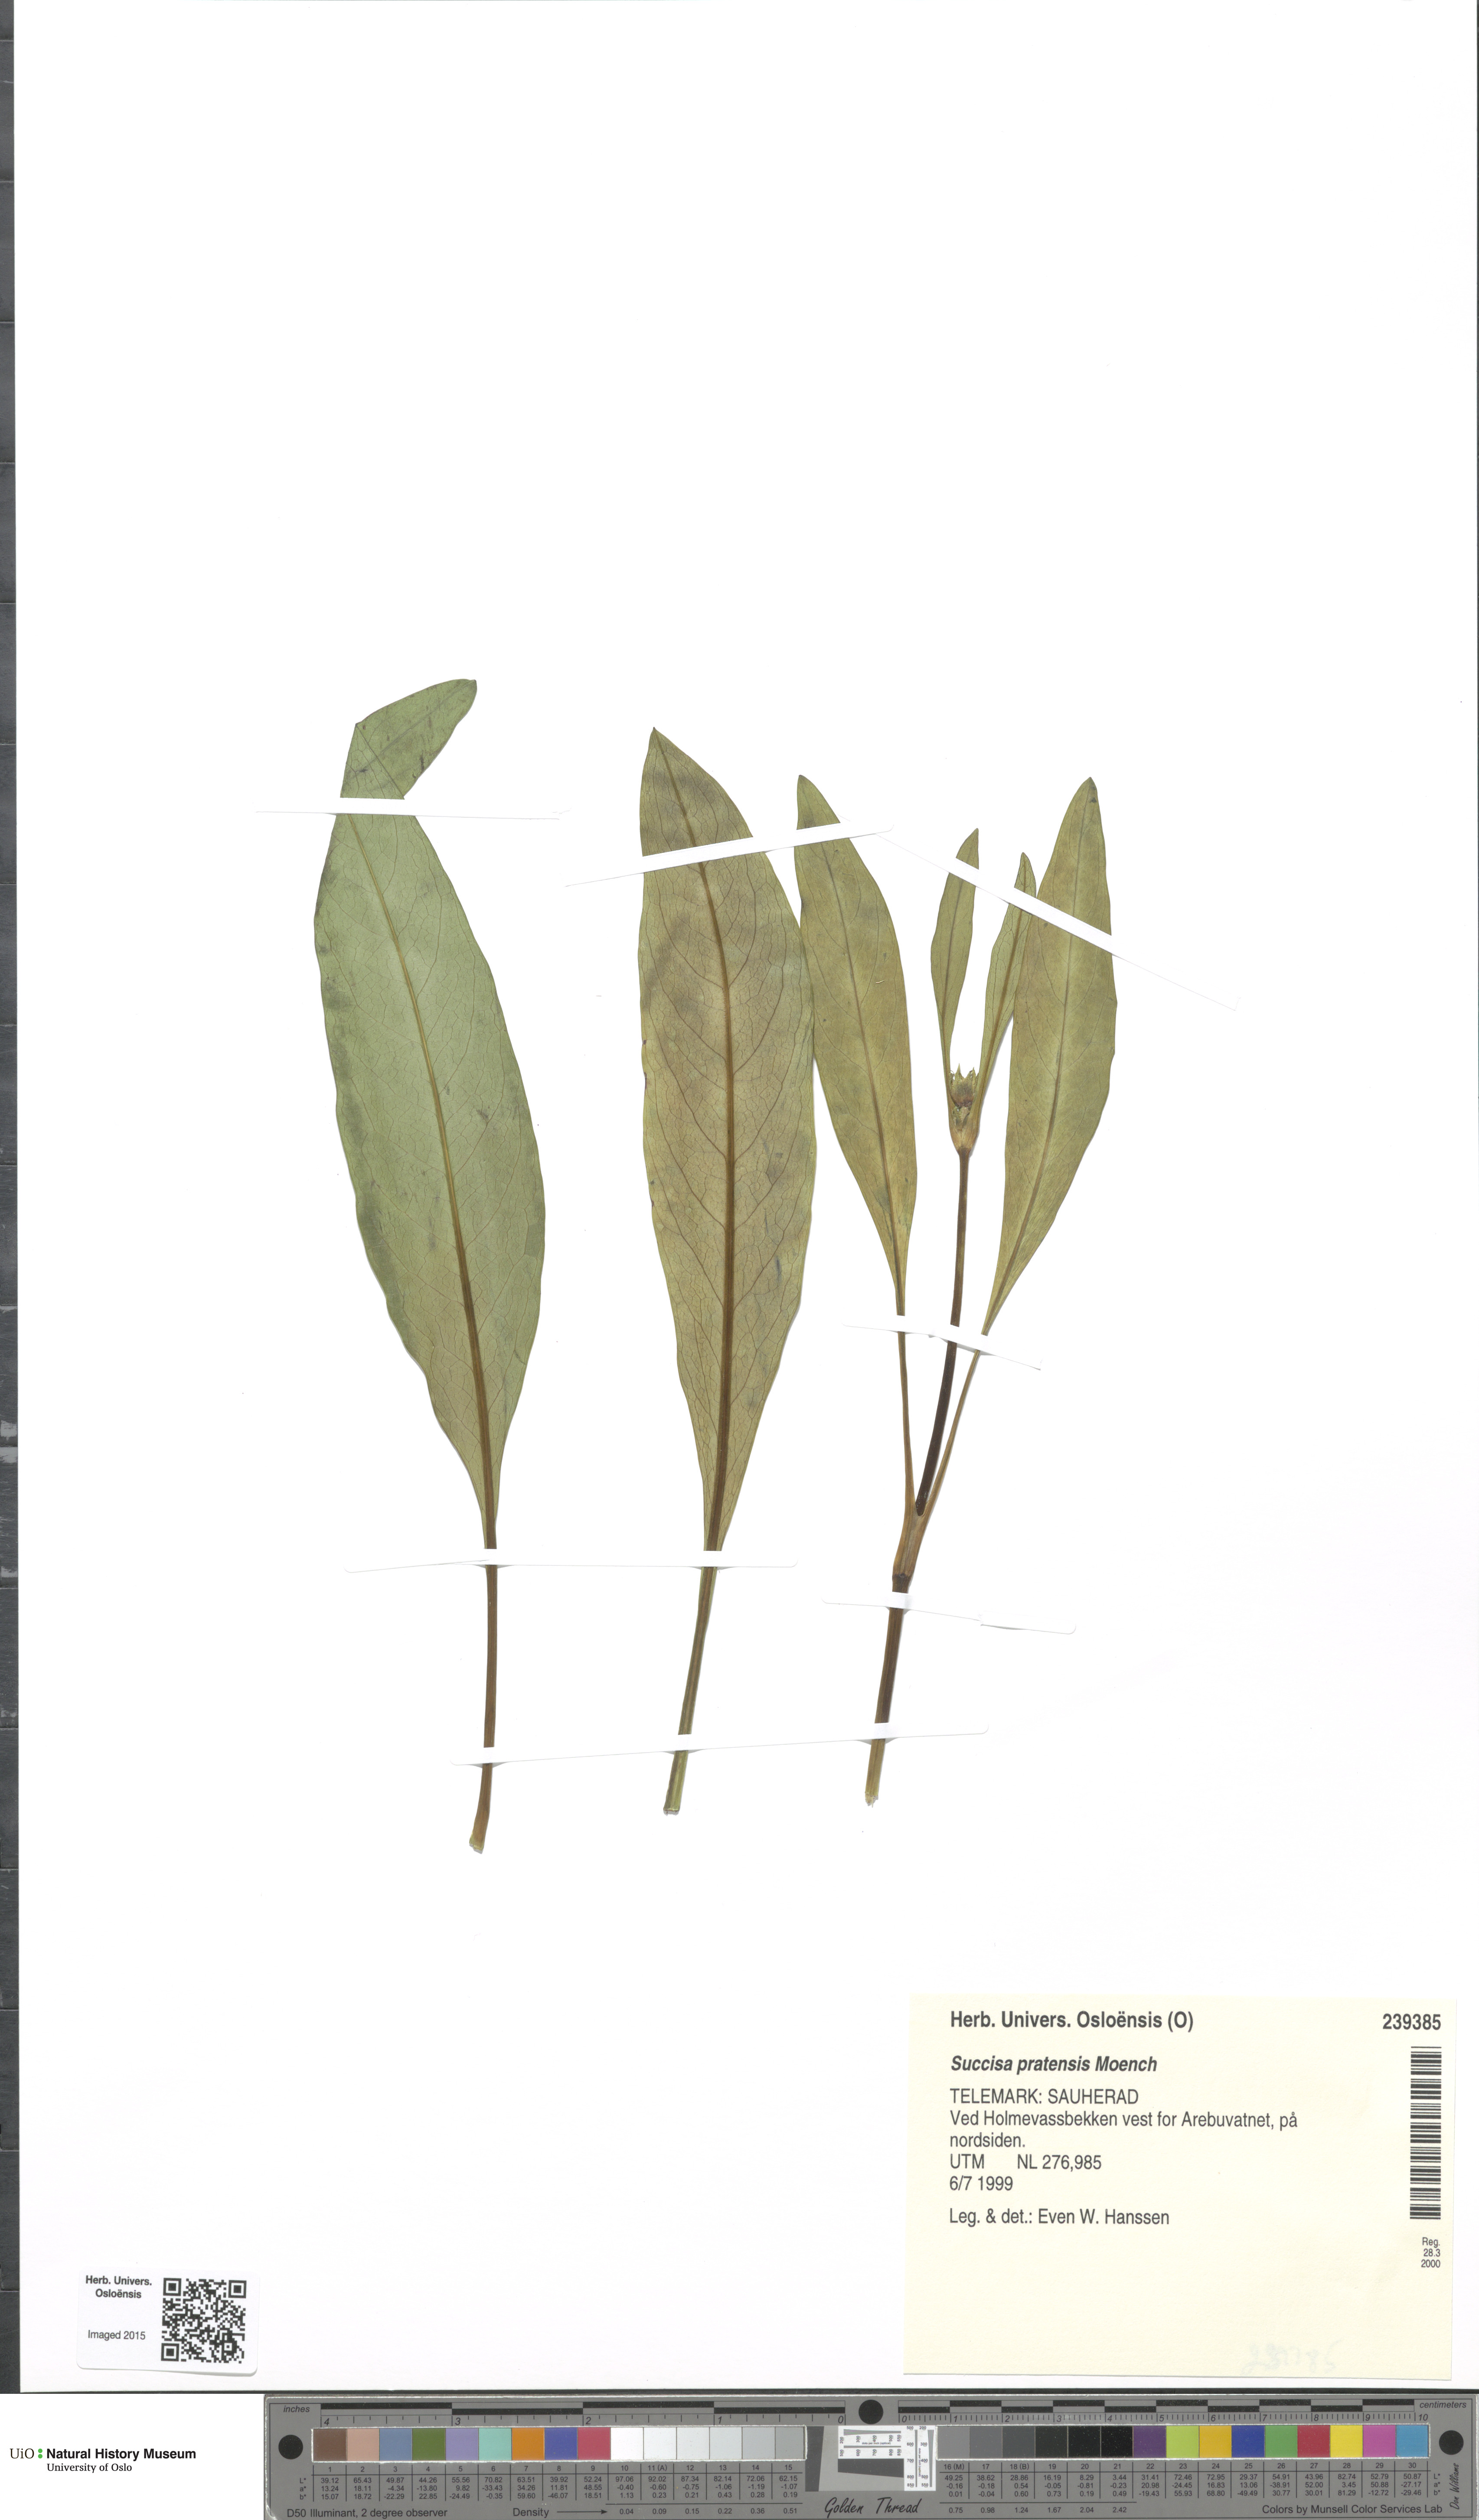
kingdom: Plantae
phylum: Tracheophyta
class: Magnoliopsida
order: Dipsacales
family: Caprifoliaceae
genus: Succisa
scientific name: Succisa pratensis
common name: Devil's-bit
